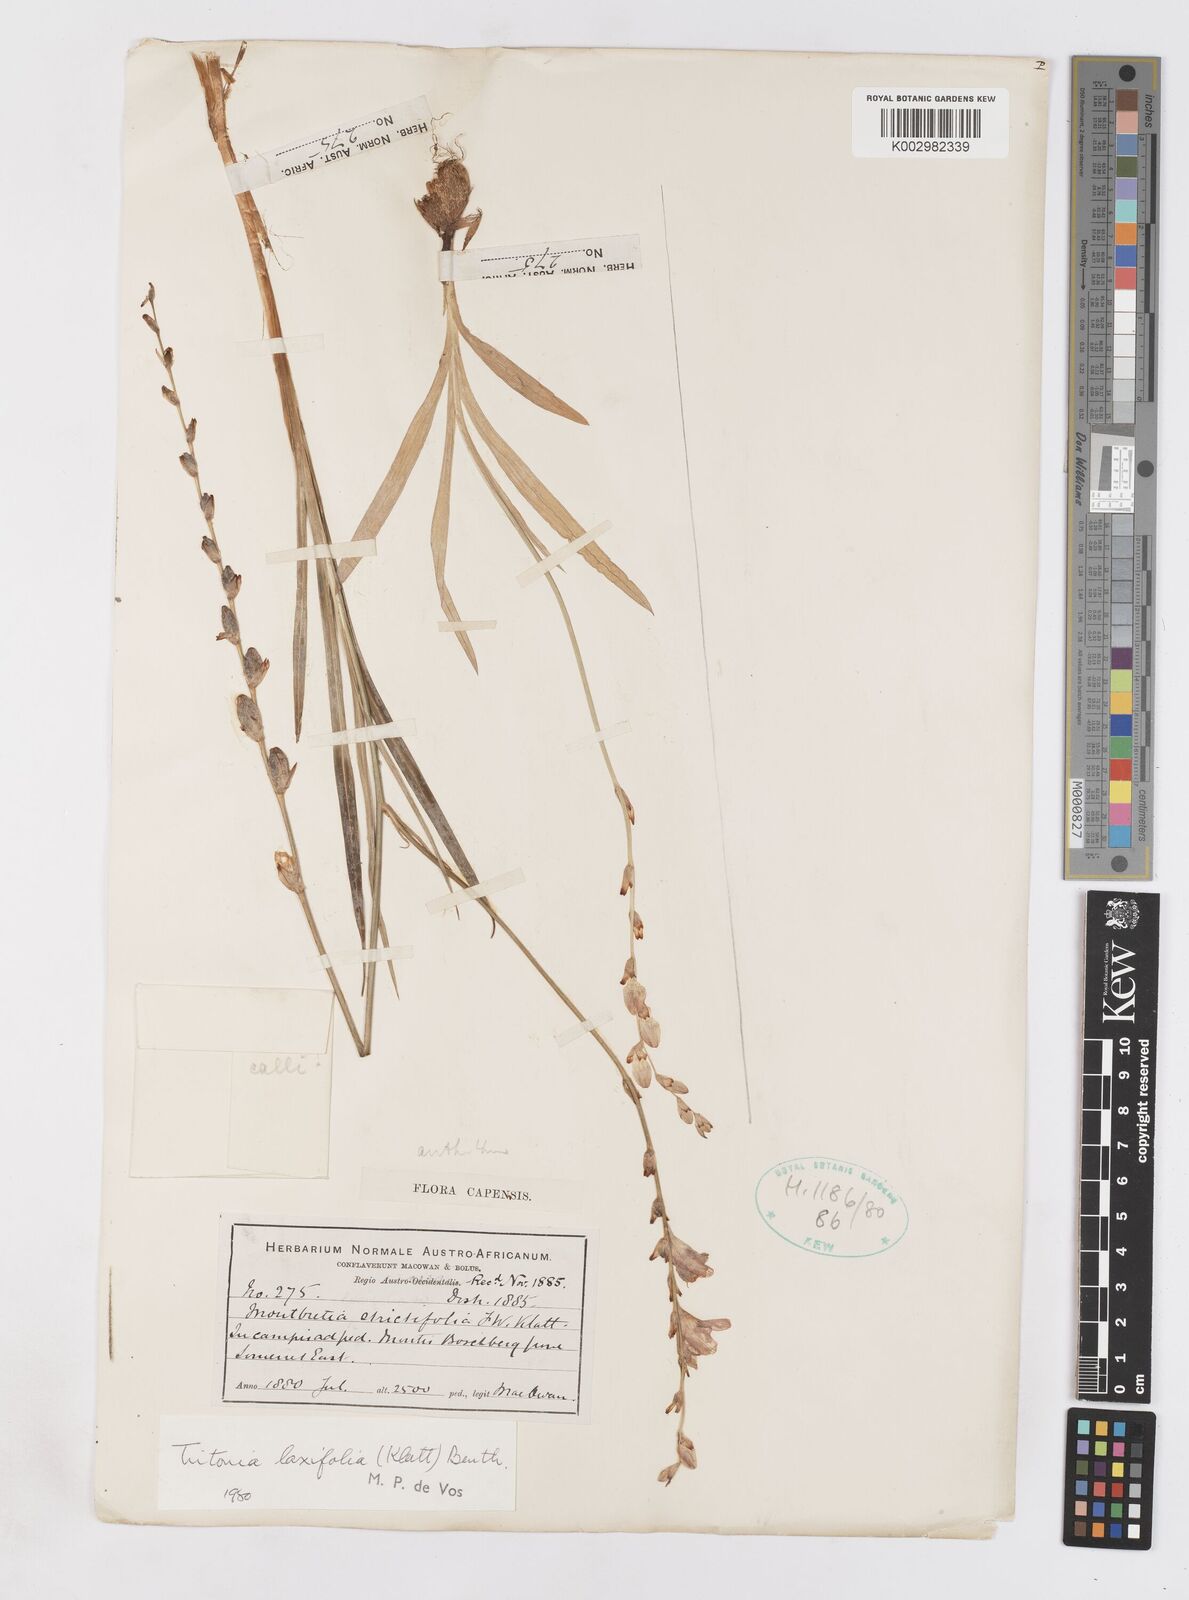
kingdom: Plantae
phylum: Tracheophyta
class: Liliopsida
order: Asparagales
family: Iridaceae
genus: Tritonia
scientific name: Tritonia laxifolia
